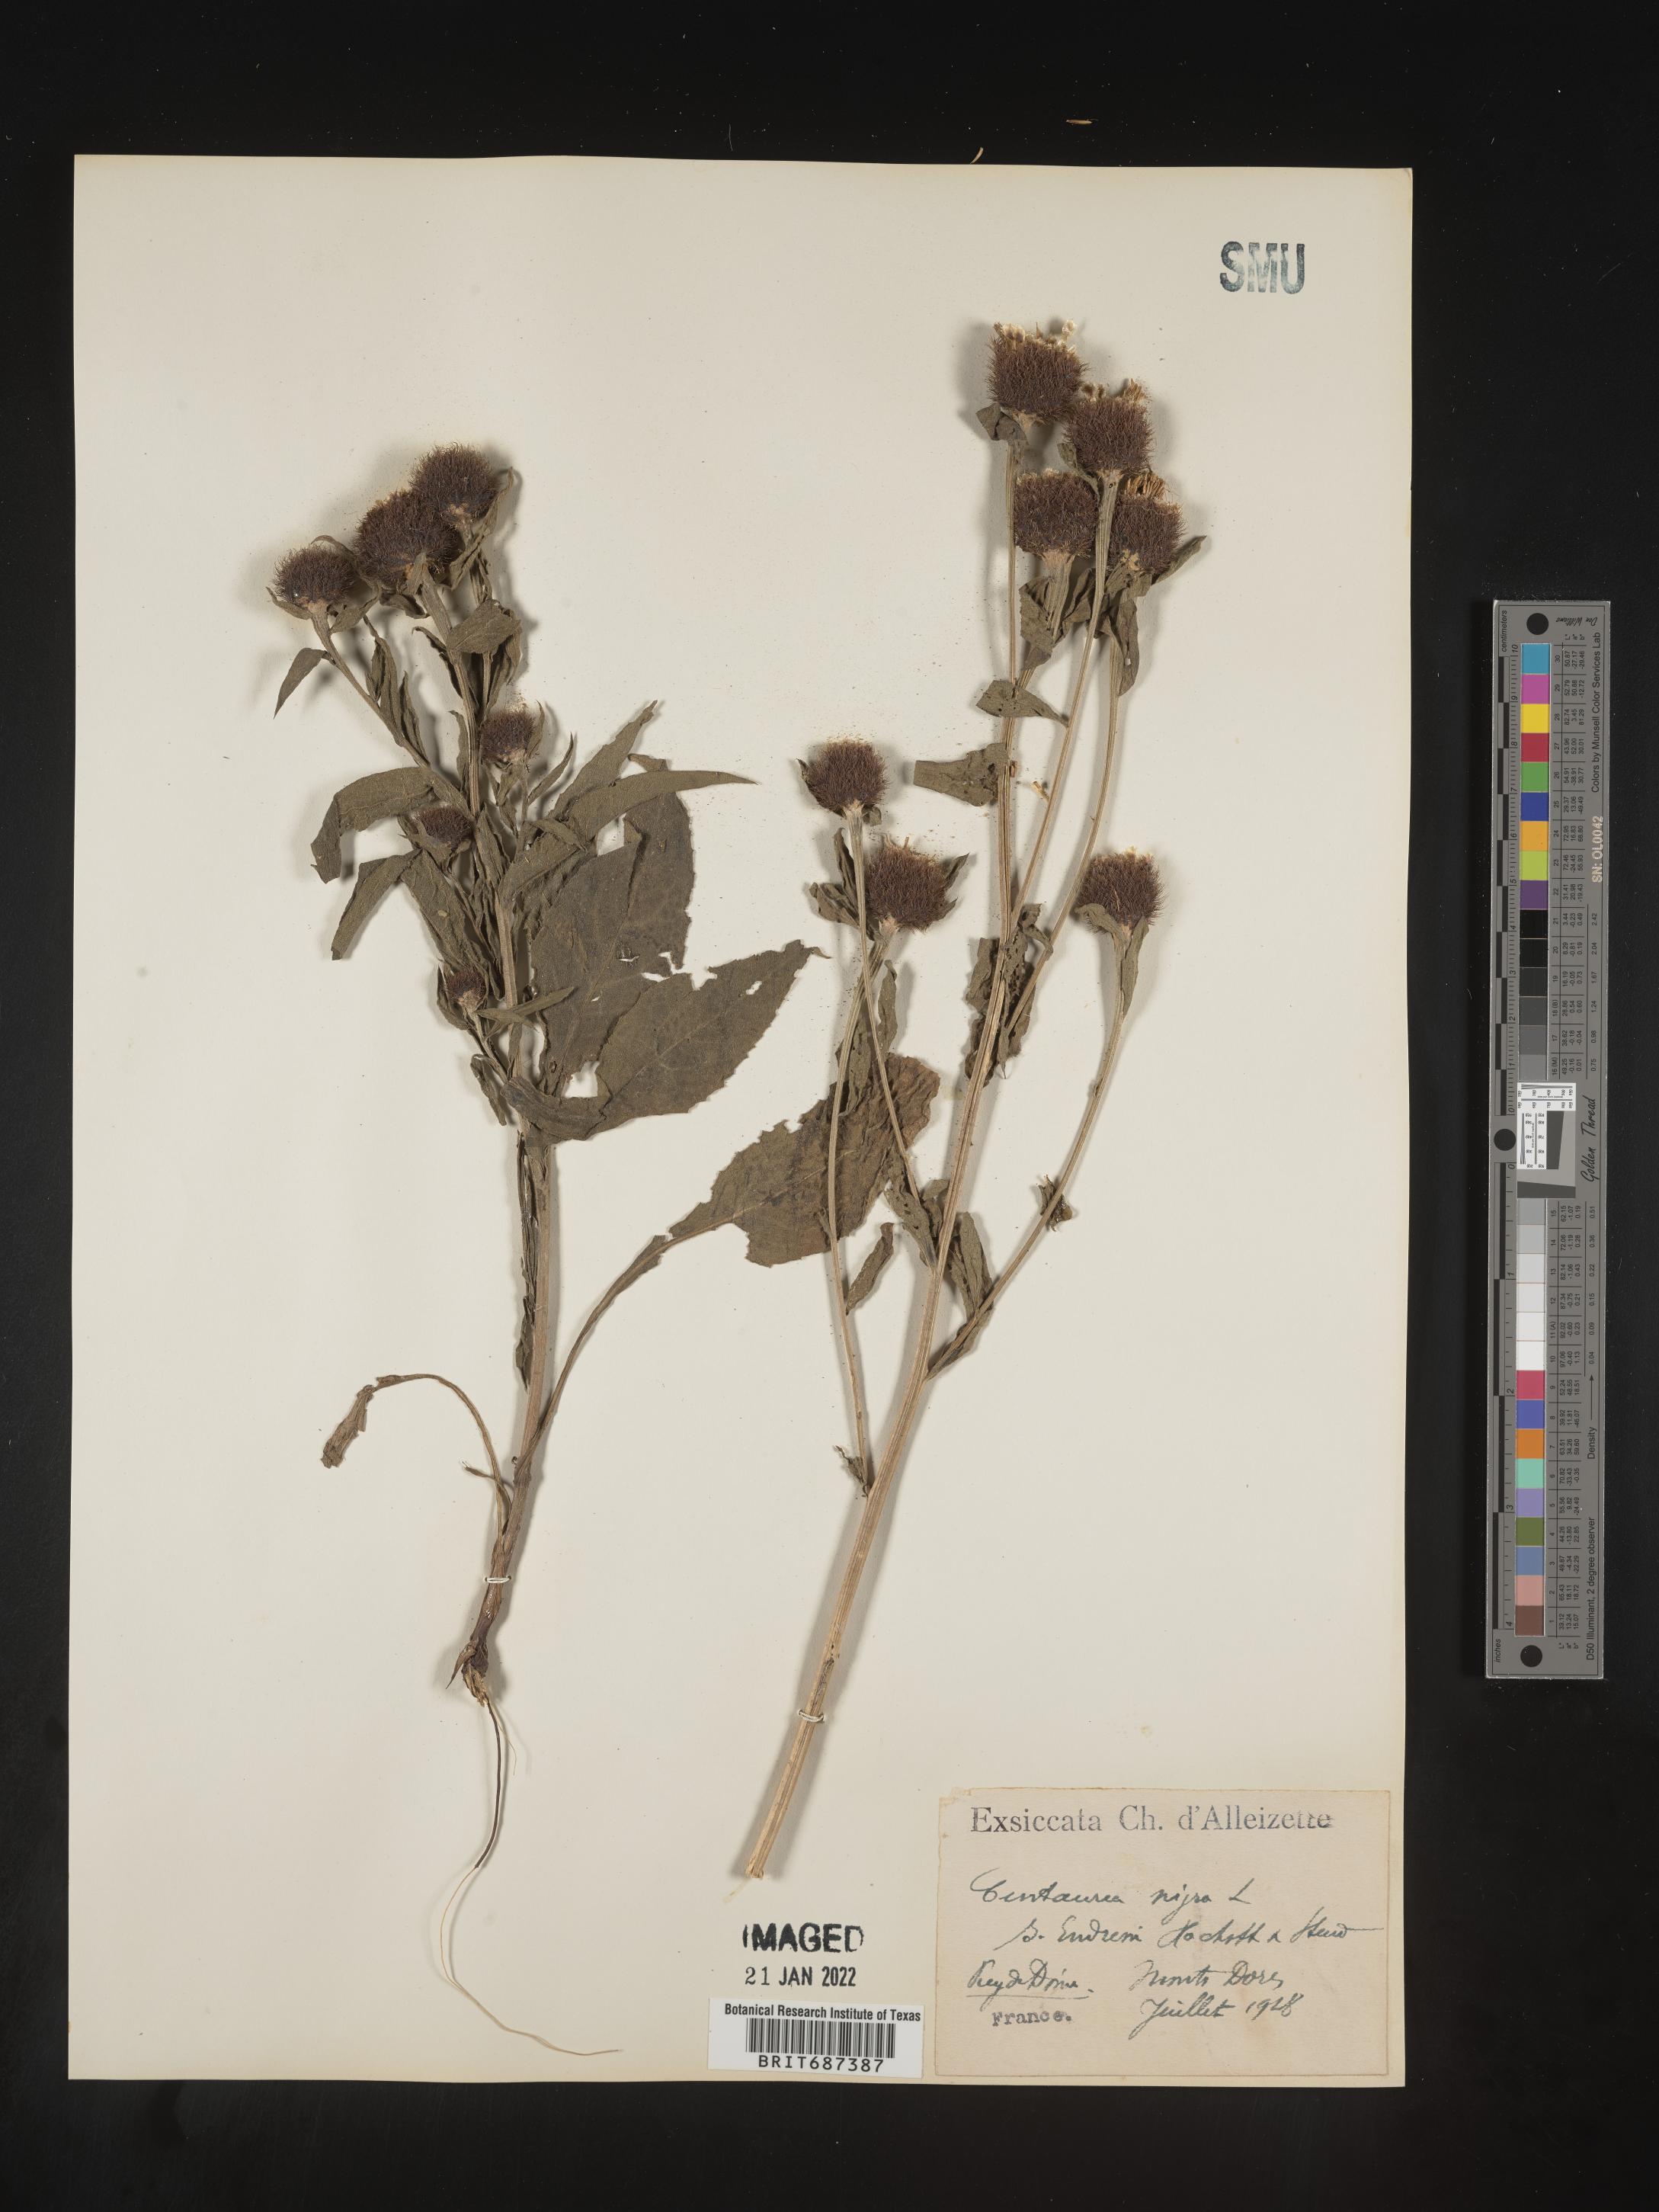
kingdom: Plantae
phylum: Tracheophyta
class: Magnoliopsida
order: Asterales
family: Asteraceae
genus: Centaurea
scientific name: Centaurea
